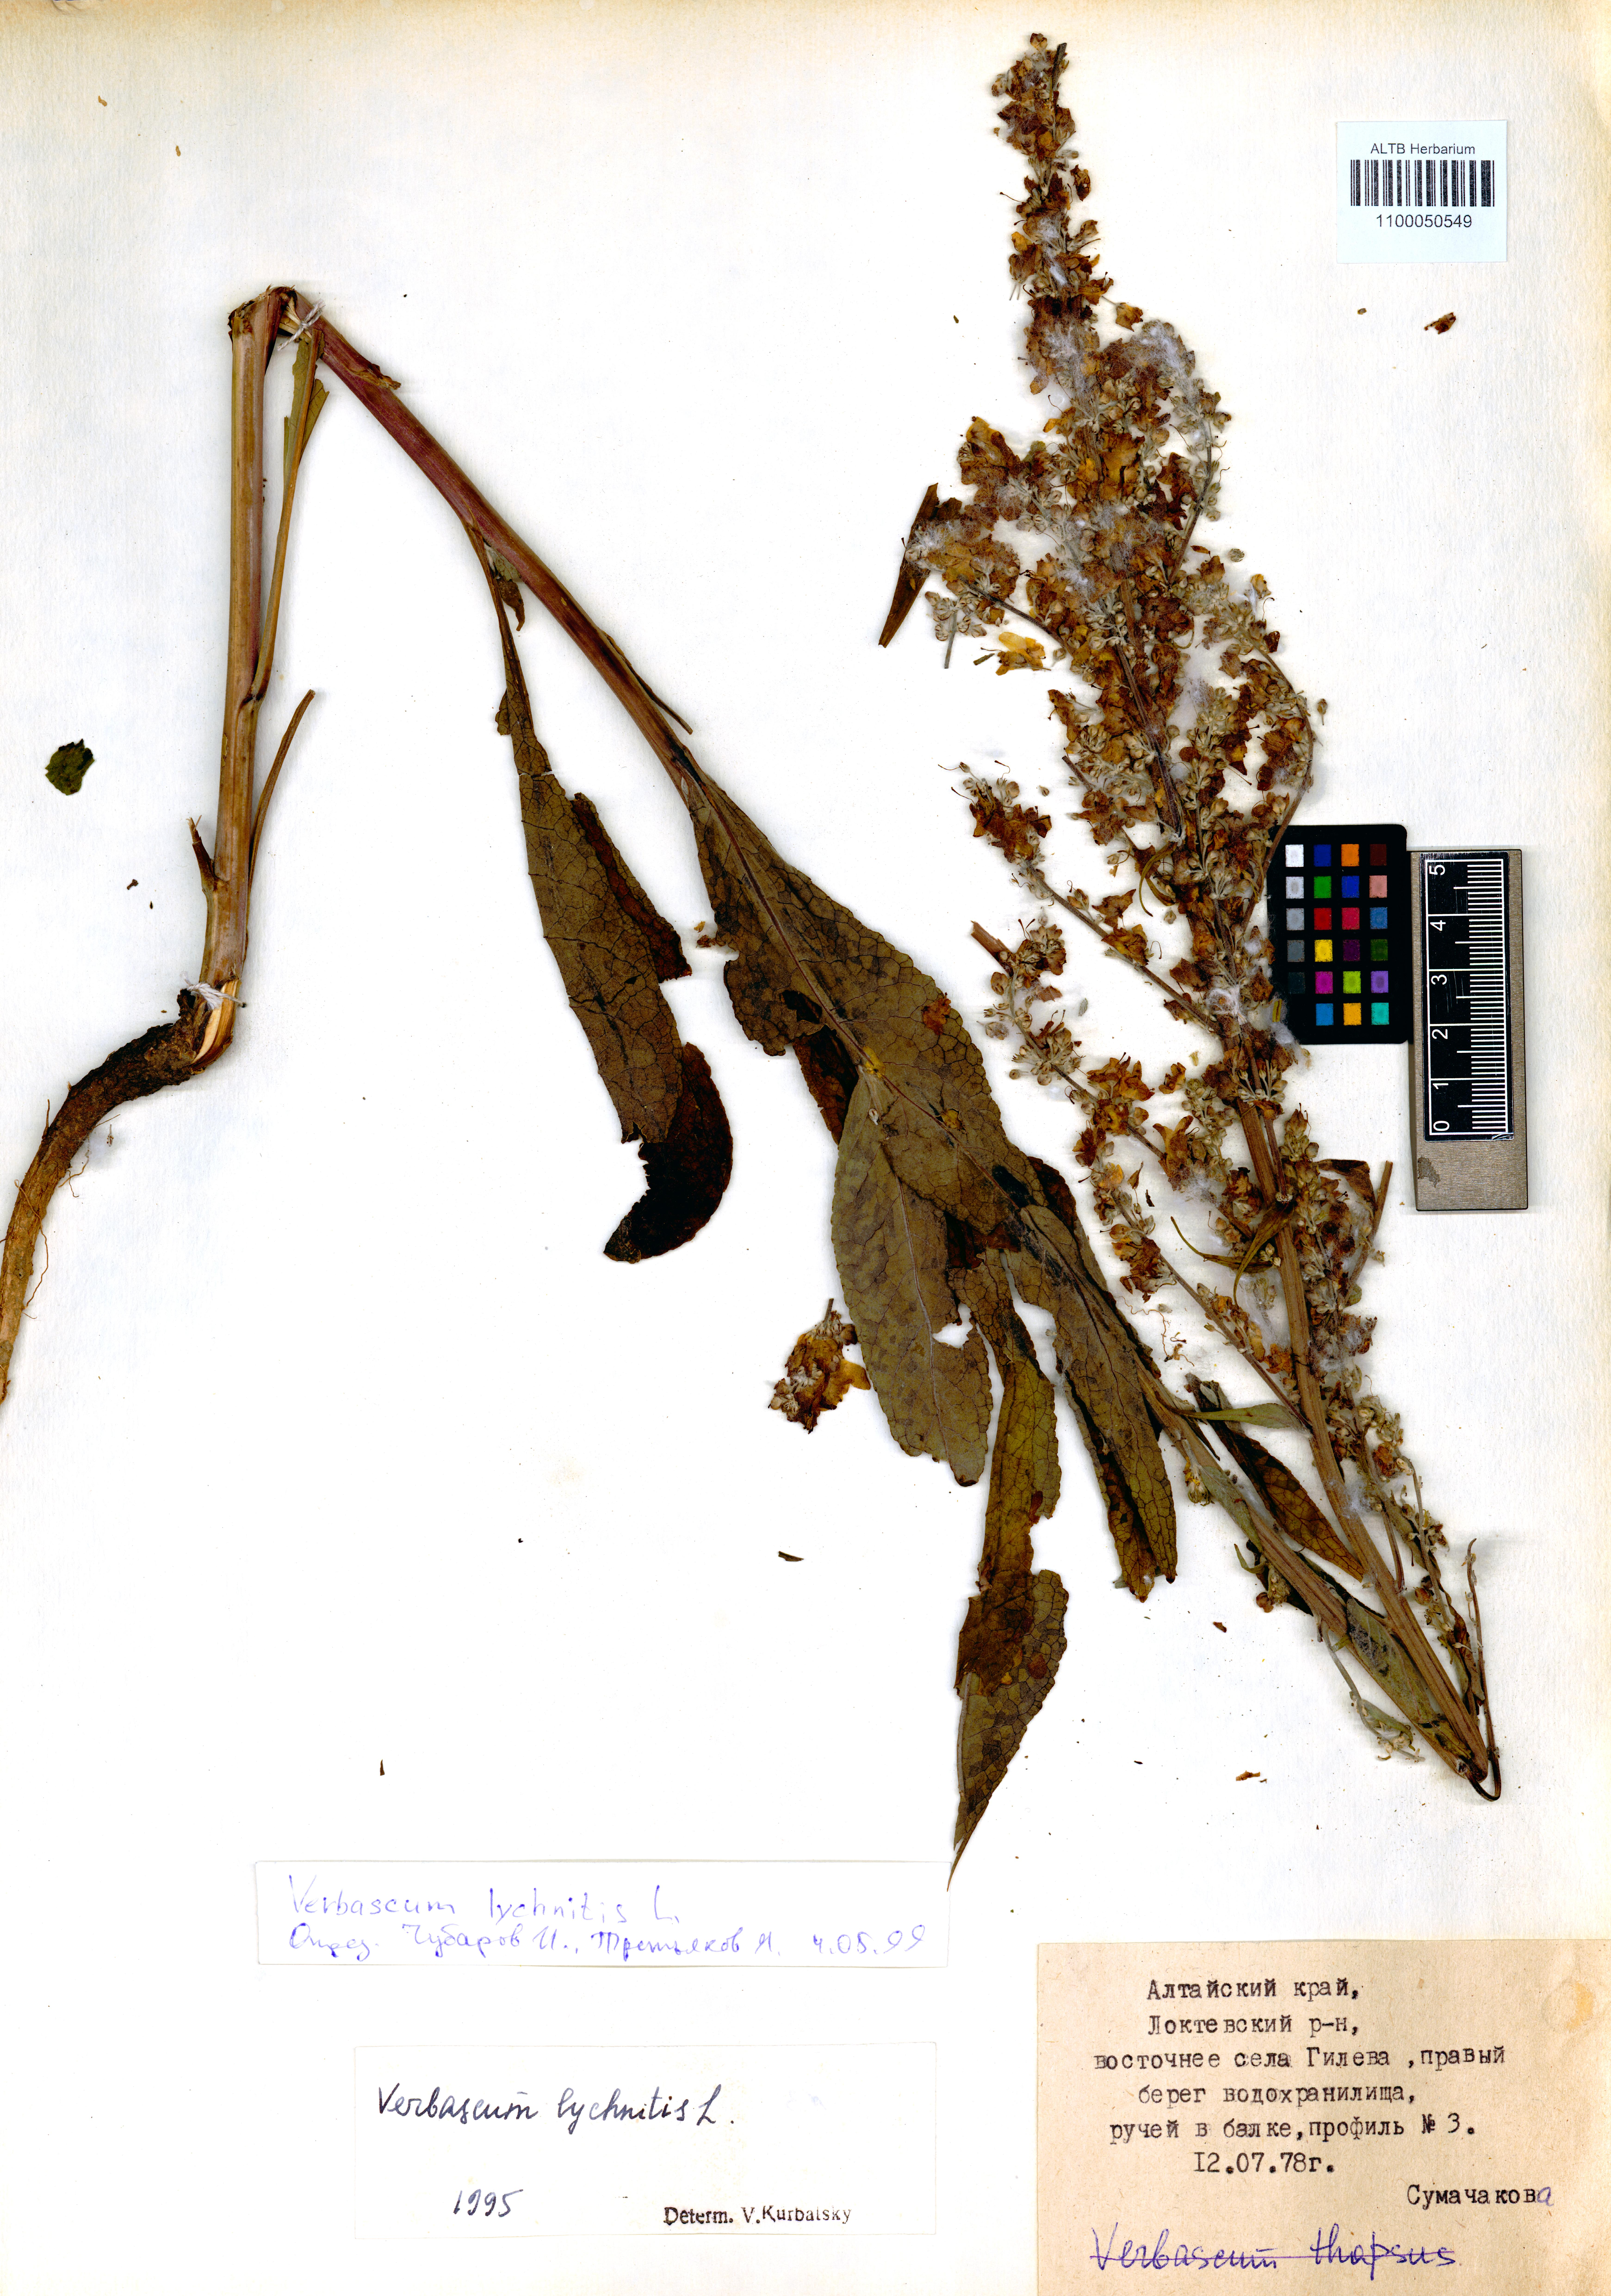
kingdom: Plantae
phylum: Tracheophyta
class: Magnoliopsida
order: Lamiales
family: Scrophulariaceae
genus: Verbascum
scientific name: Verbascum lychnitis
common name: White mullein
